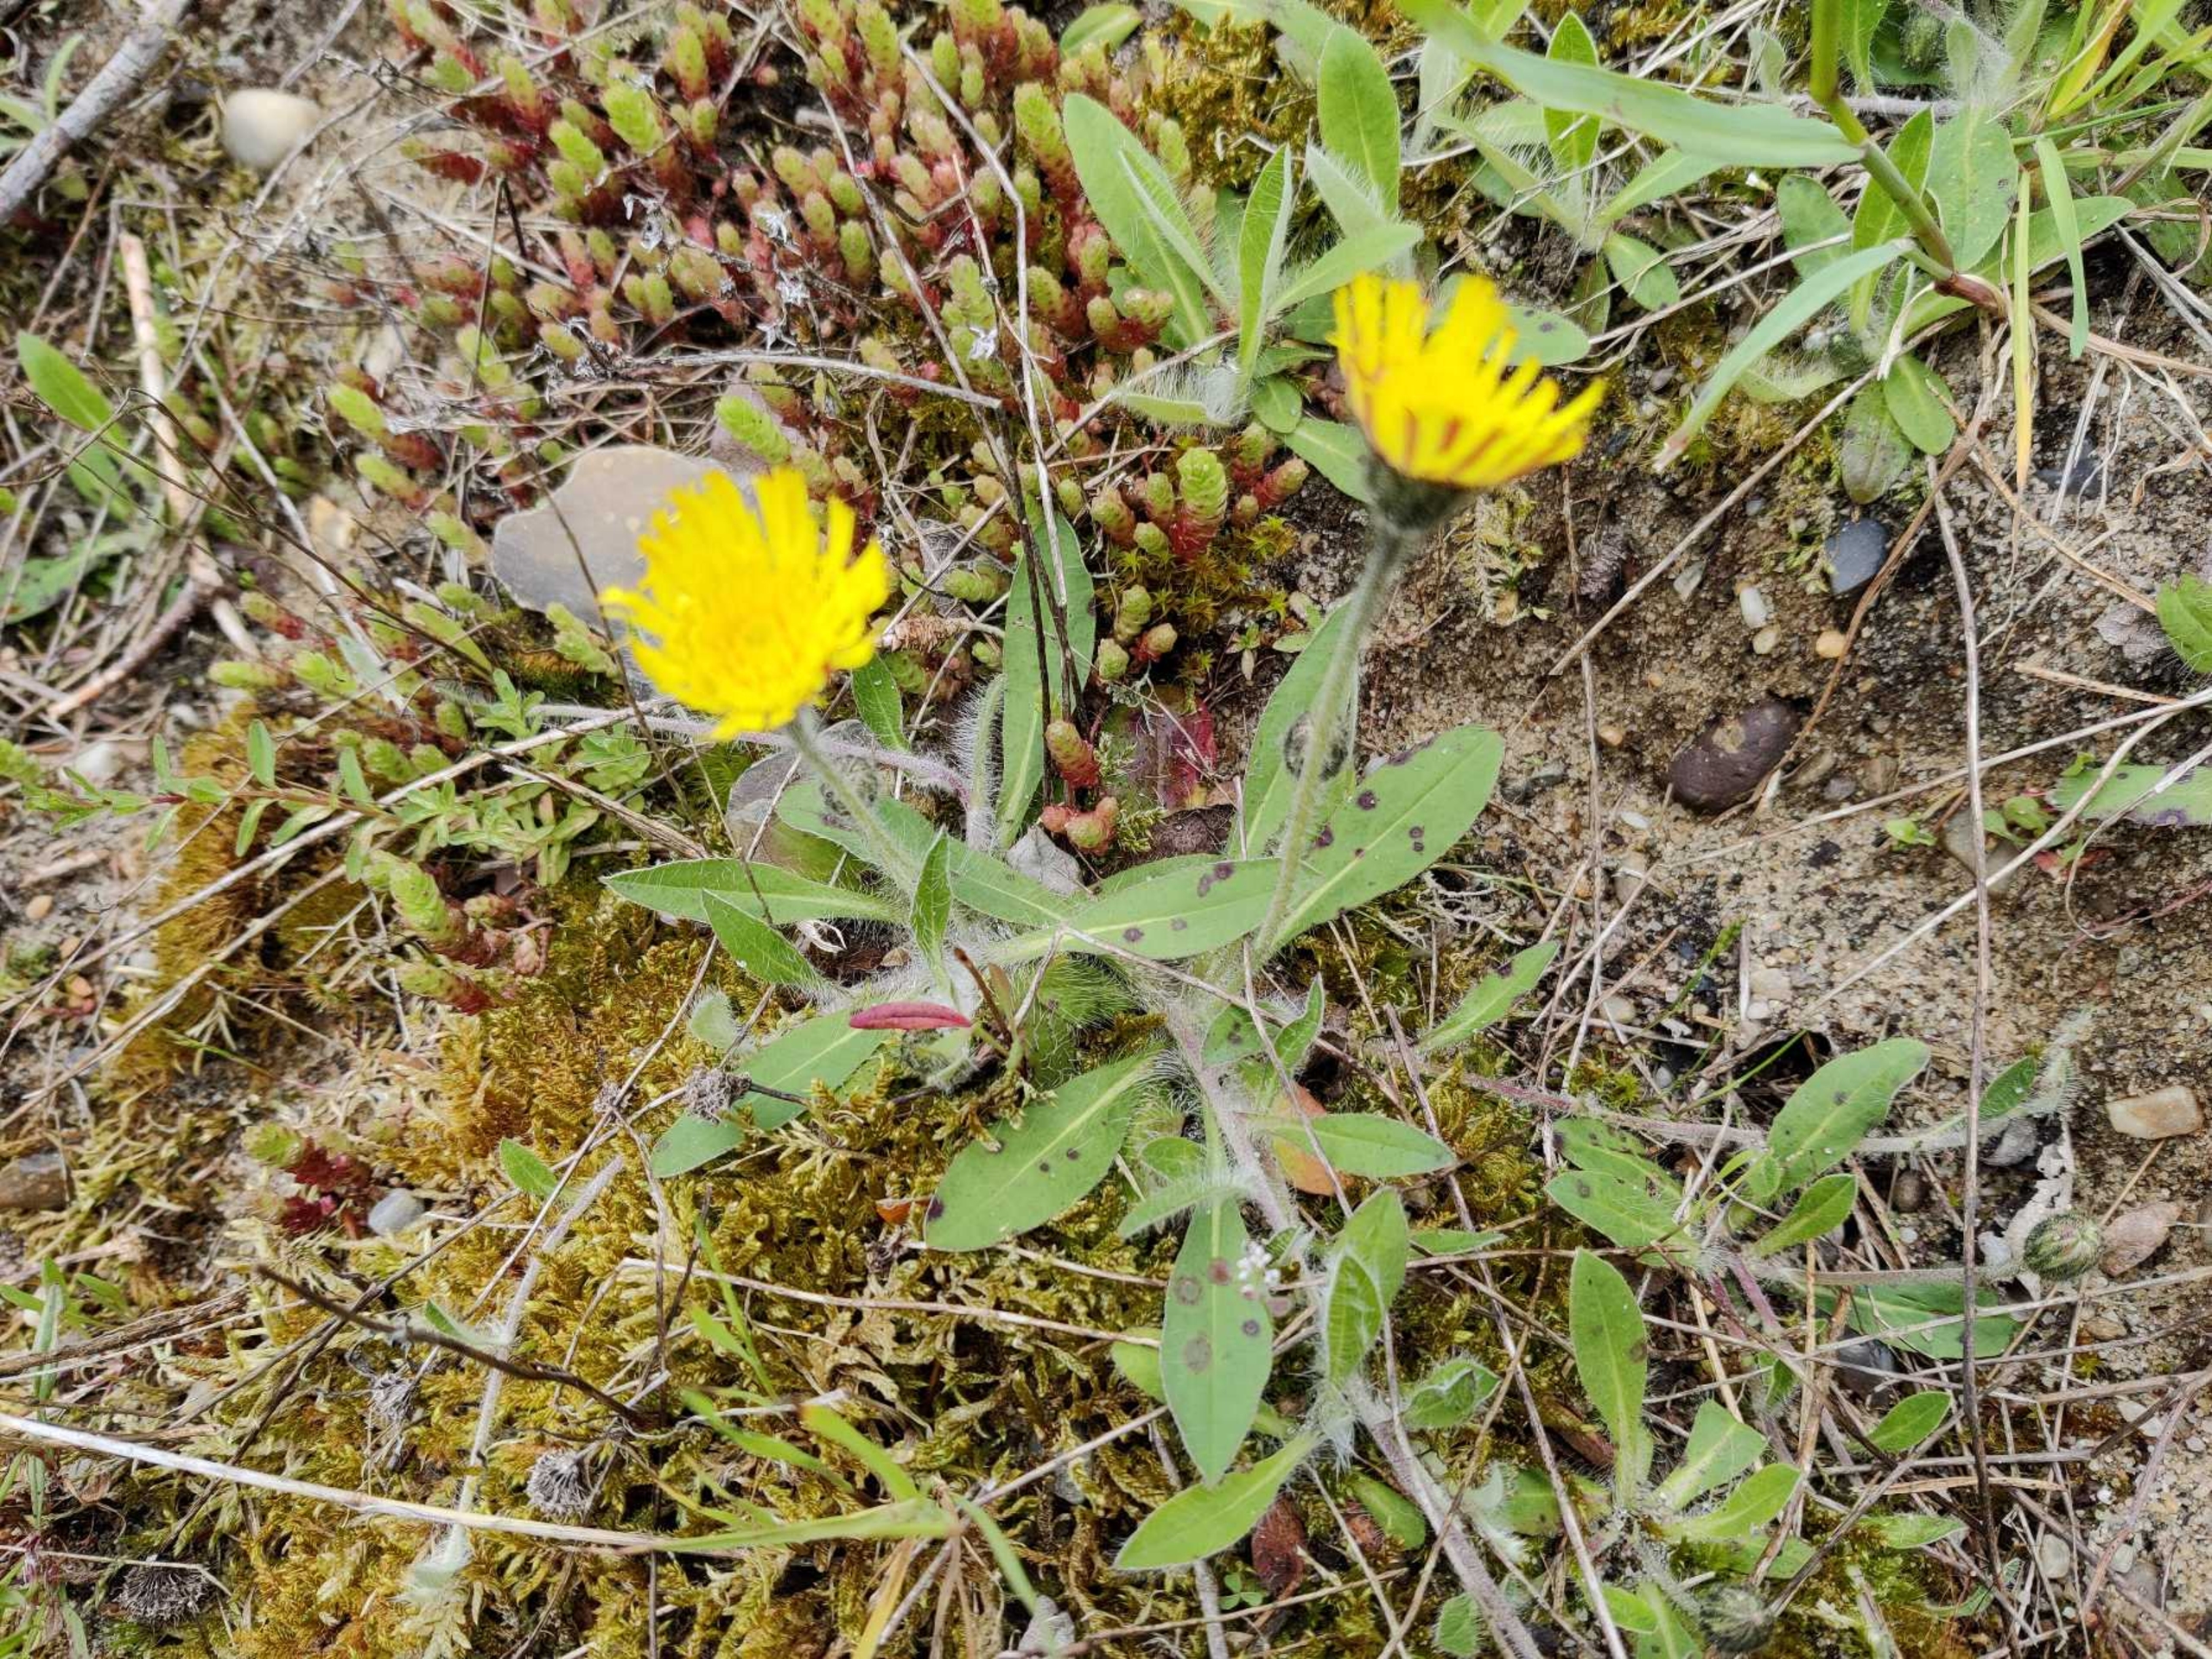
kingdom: Plantae
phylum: Tracheophyta
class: Magnoliopsida
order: Asterales
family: Asteraceae
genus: Pilosella
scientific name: Pilosella officinarum
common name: Håret høgeurt
